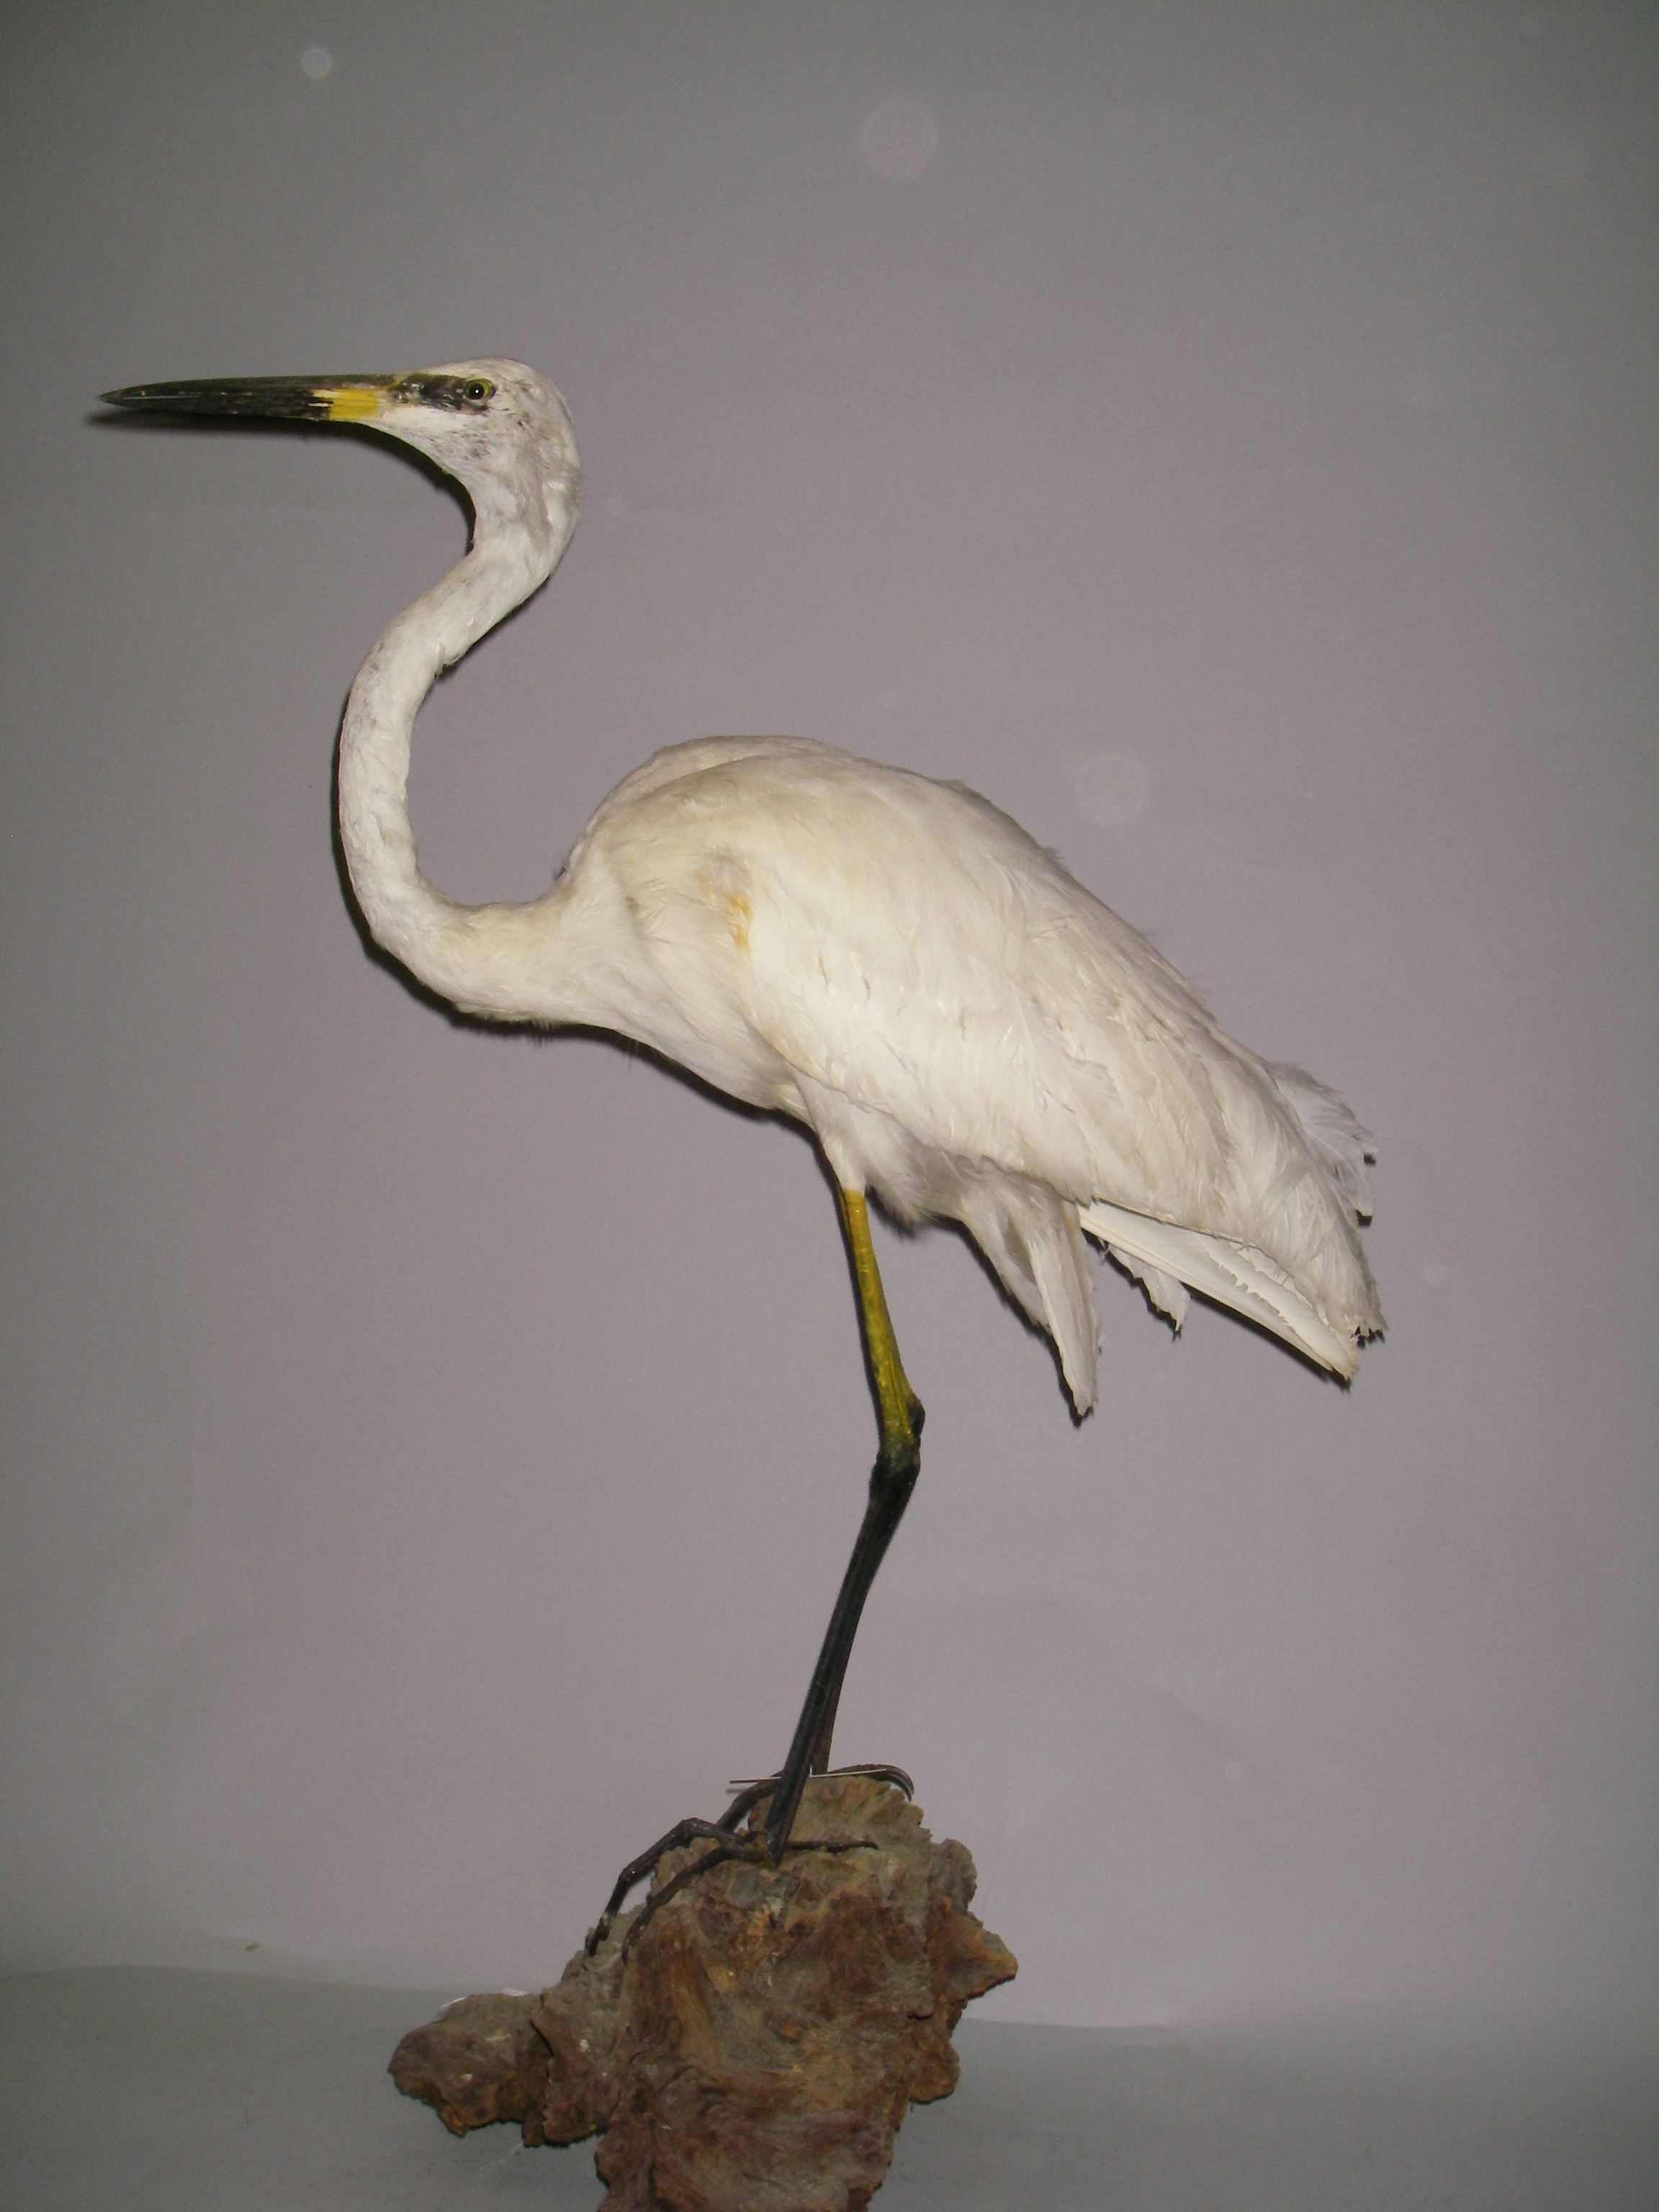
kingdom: Animalia
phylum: Chordata
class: Aves
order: Pelecaniformes
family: Ardeidae
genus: Ardea
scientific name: Ardea alba
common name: Great egret
